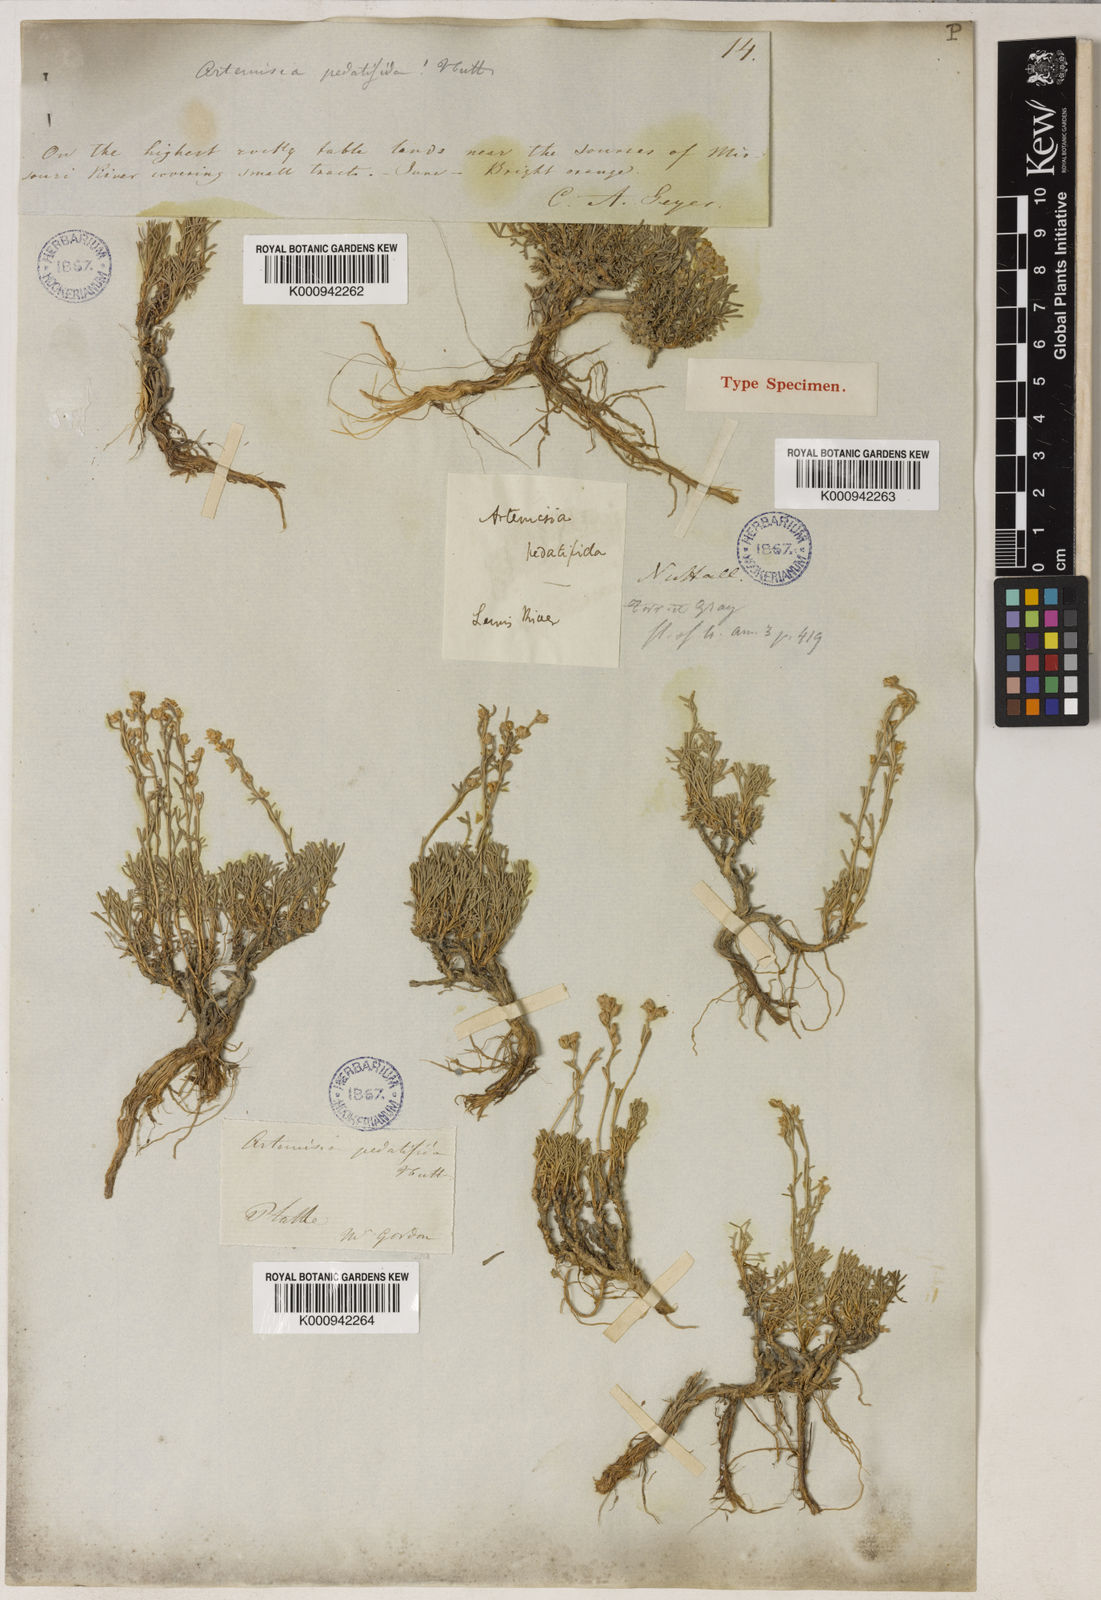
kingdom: Plantae
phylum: Tracheophyta
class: Magnoliopsida
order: Asterales
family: Asteraceae
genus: Artemisia
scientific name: Artemisia pedatifida
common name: Matted sagewort
